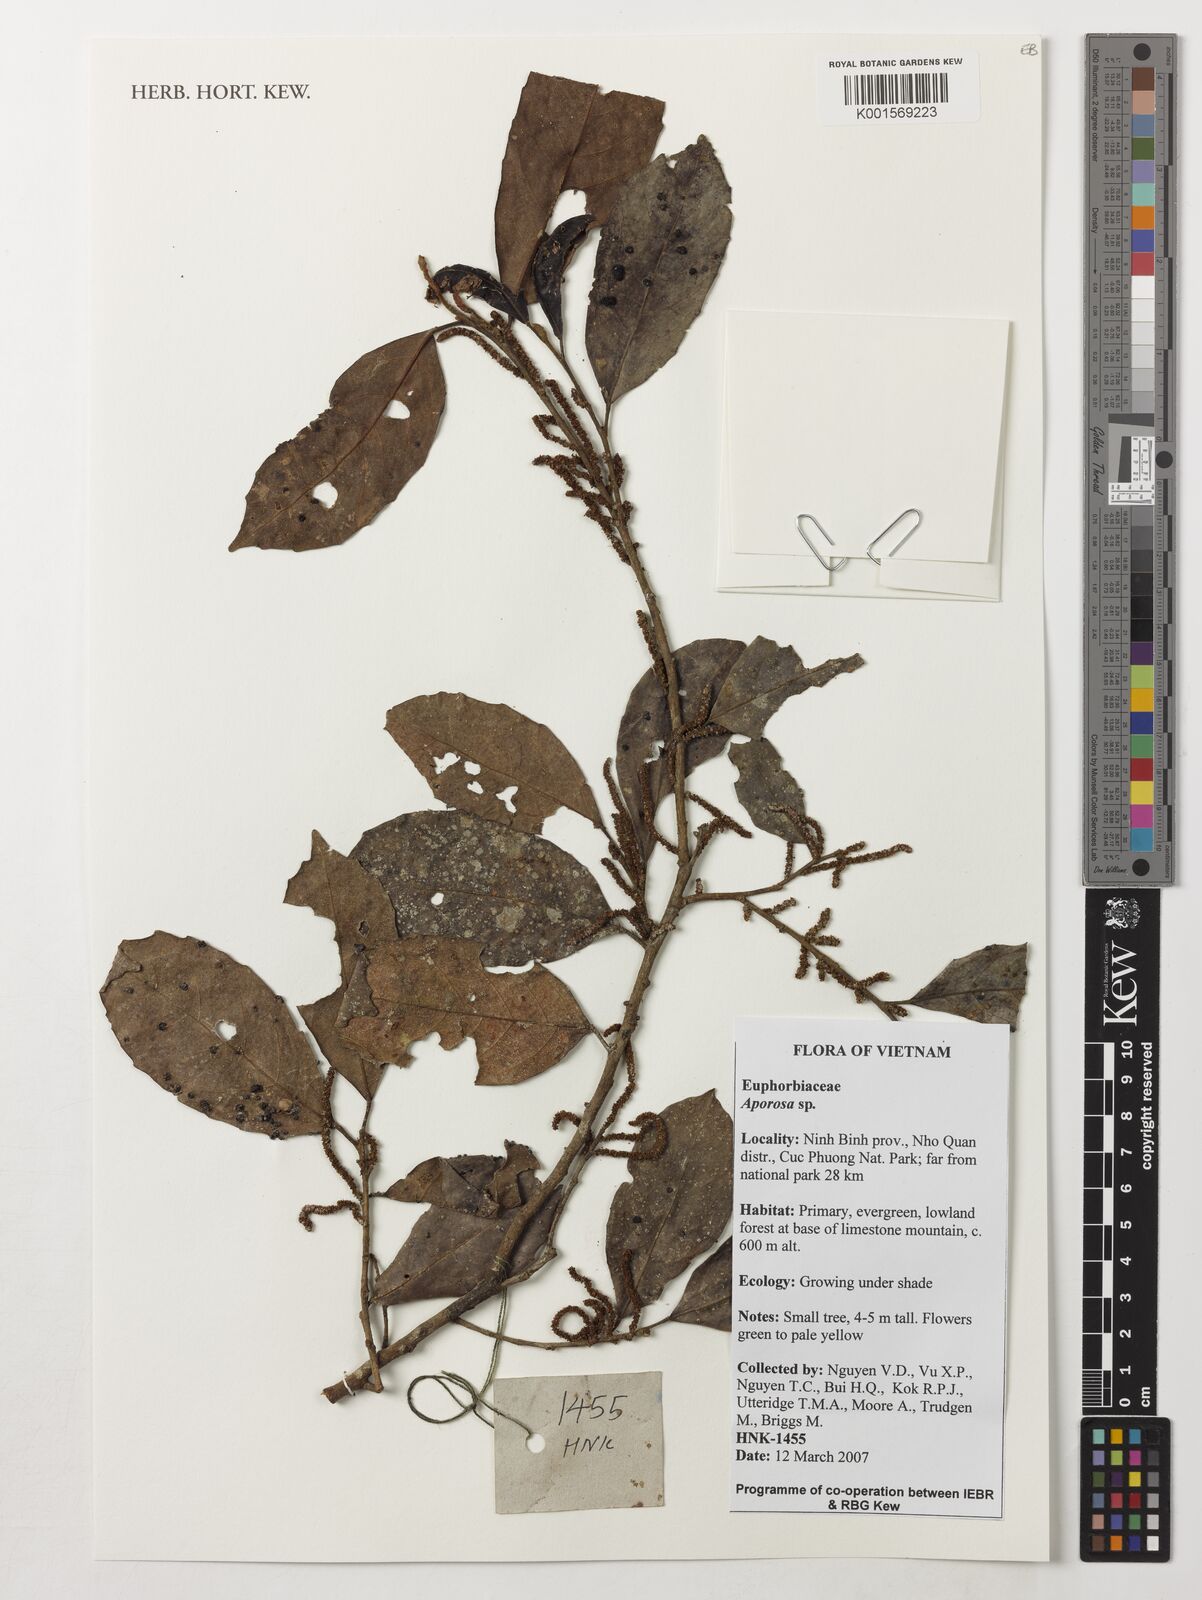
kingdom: Plantae
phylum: Tracheophyta
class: Magnoliopsida
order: Malpighiales
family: Phyllanthaceae
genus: Aporosa
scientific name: Aporosa
